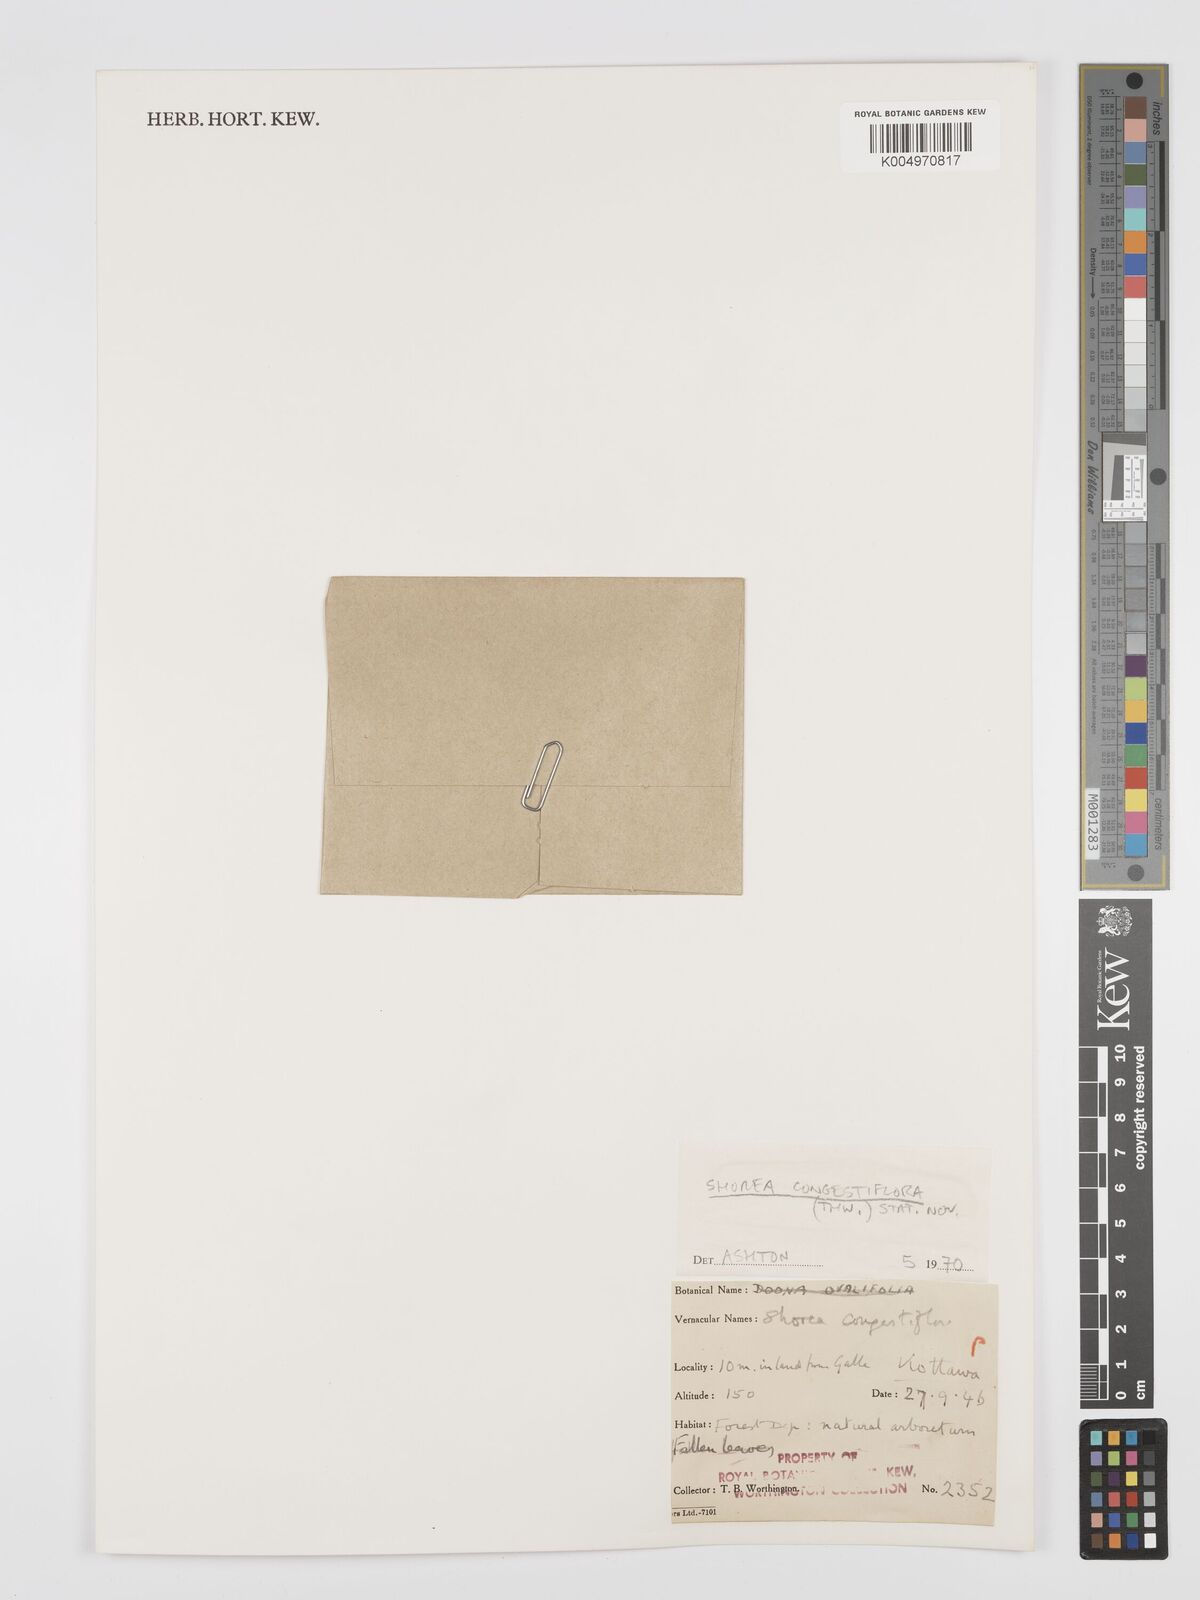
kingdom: Plantae
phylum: Tracheophyta
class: Magnoliopsida
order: Malvales
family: Dipterocarpaceae
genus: Doona
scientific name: Doona congestiflora
